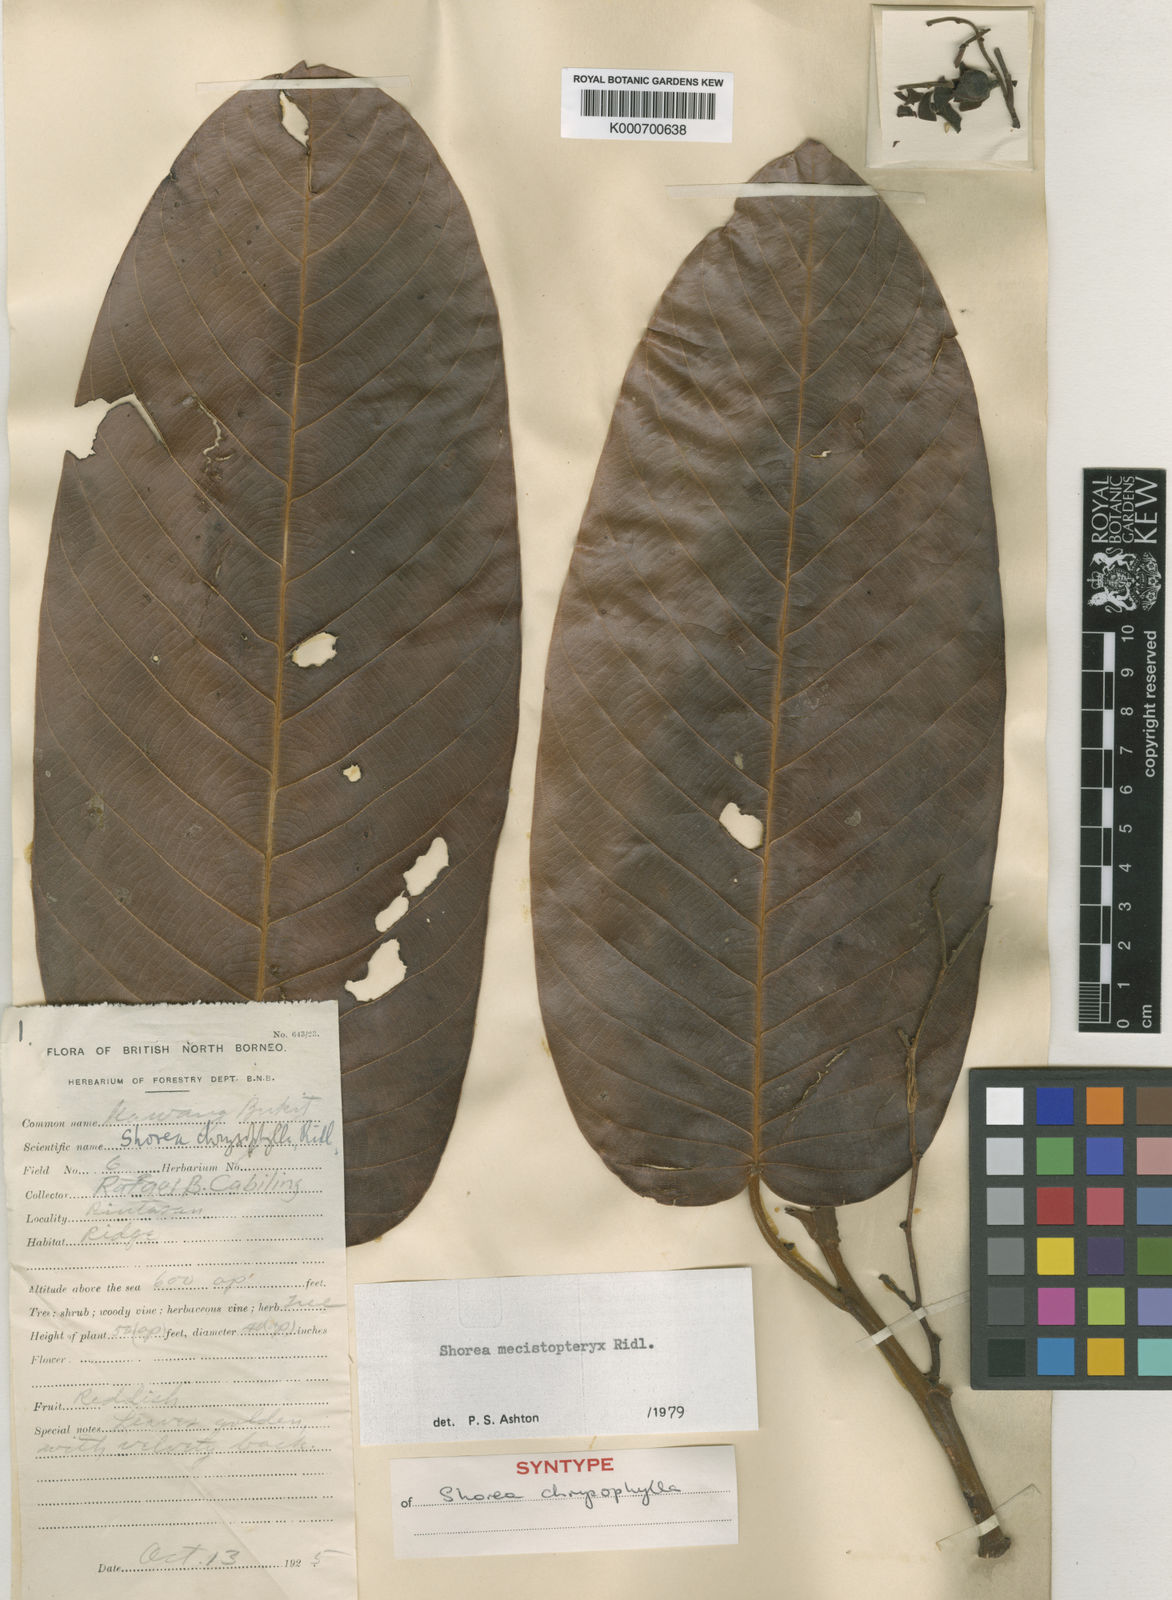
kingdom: Plantae
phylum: Tracheophyta
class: Magnoliopsida
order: Malvales
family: Dipterocarpaceae
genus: Shorea
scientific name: Shorea mecistopteryx
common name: Red meranti
